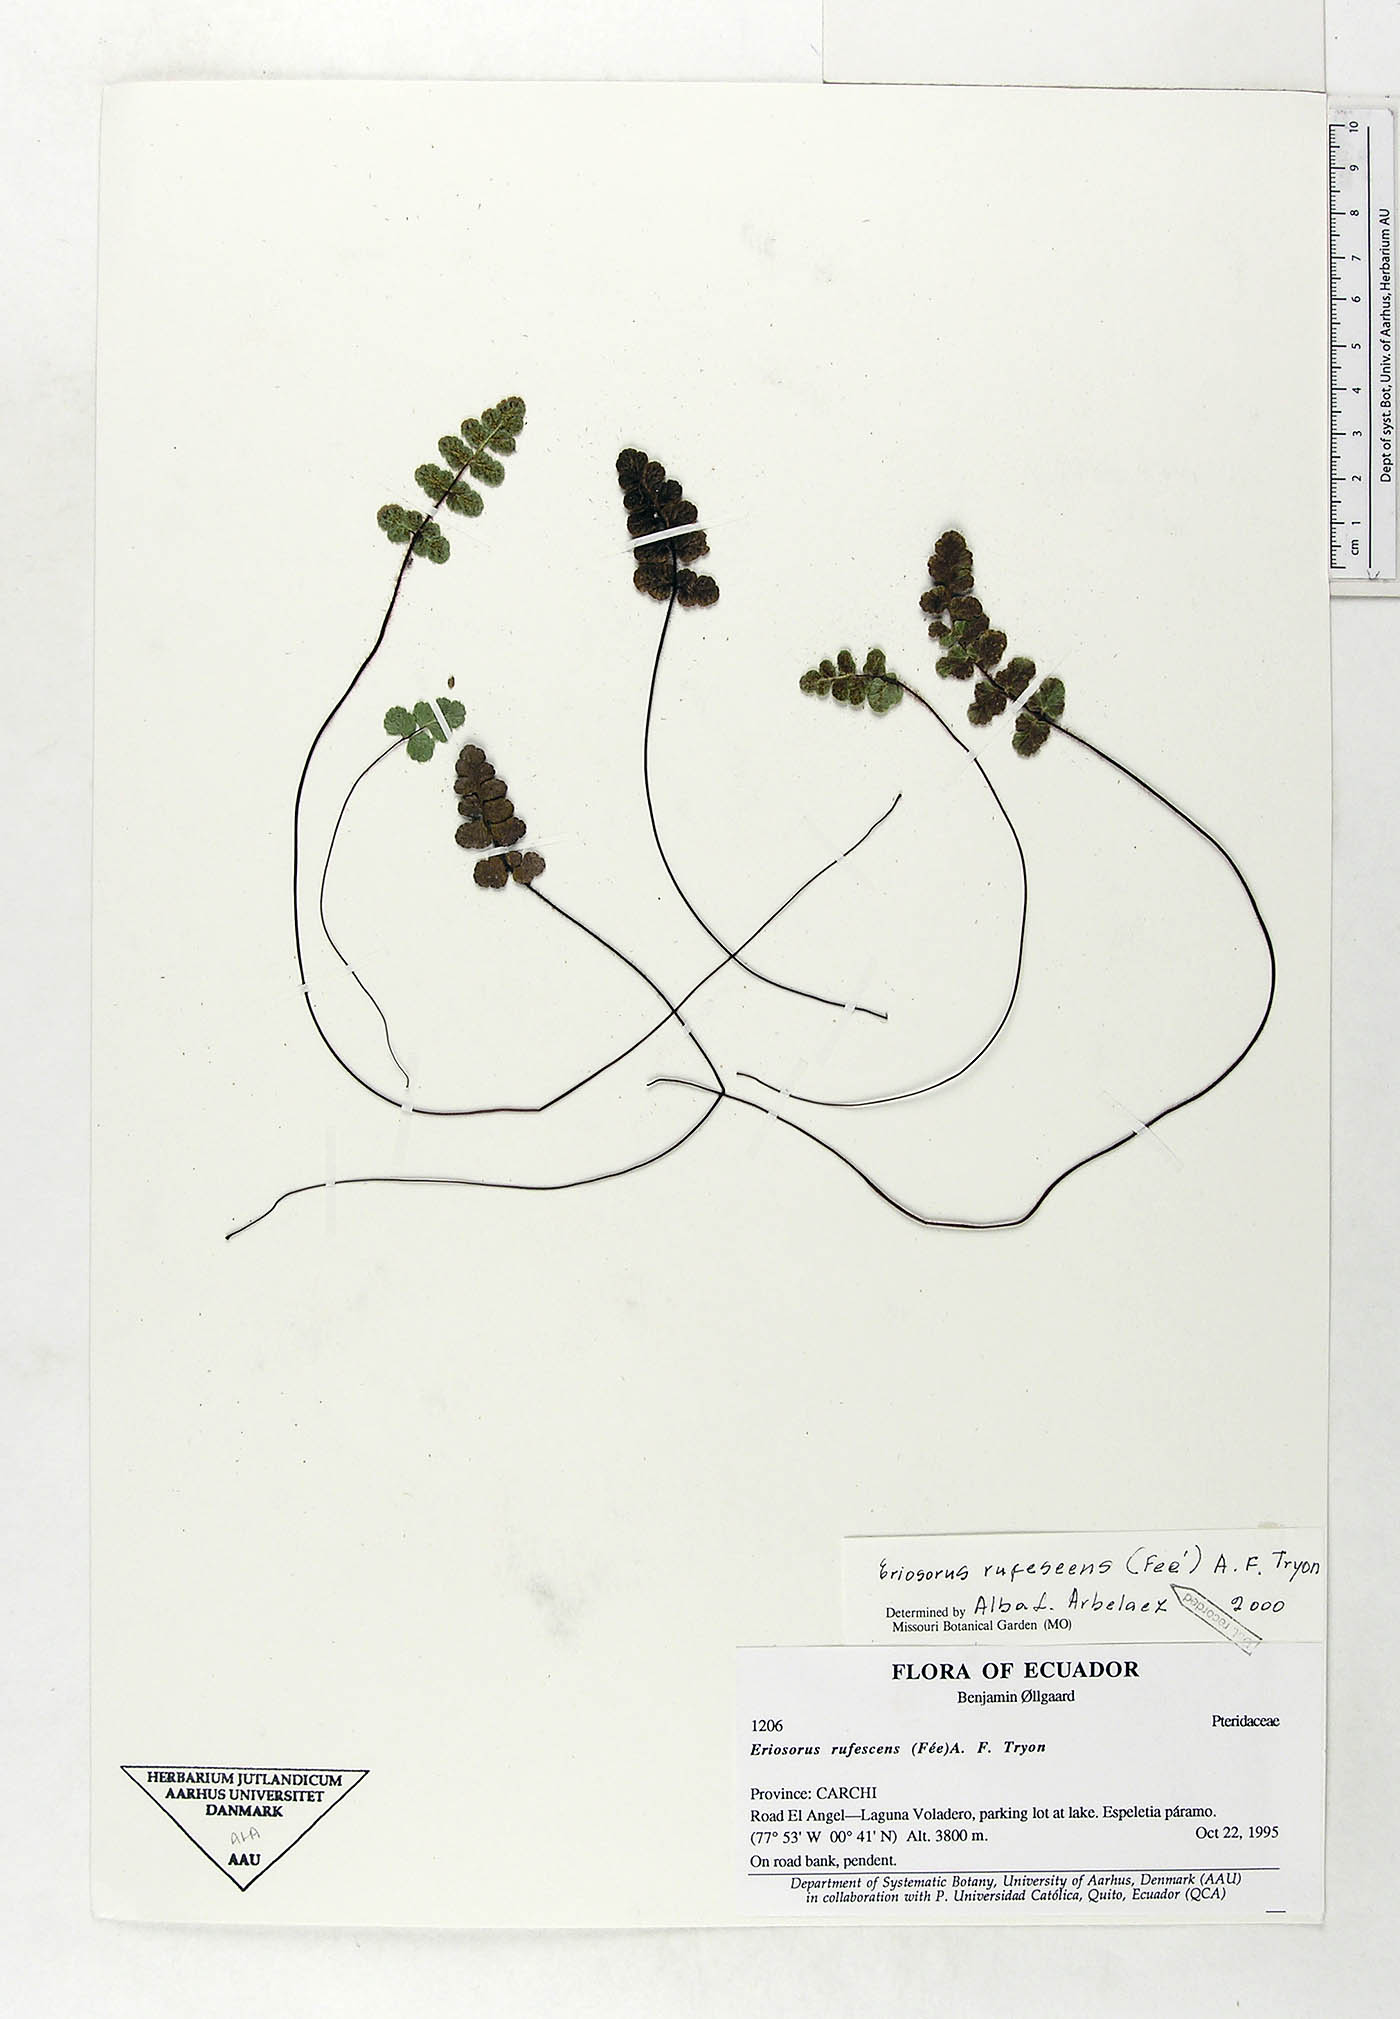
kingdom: Plantae
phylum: Tracheophyta
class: Polypodiopsida
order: Polypodiales
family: Pteridaceae
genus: Jamesonia
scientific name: Jamesonia rufescens
